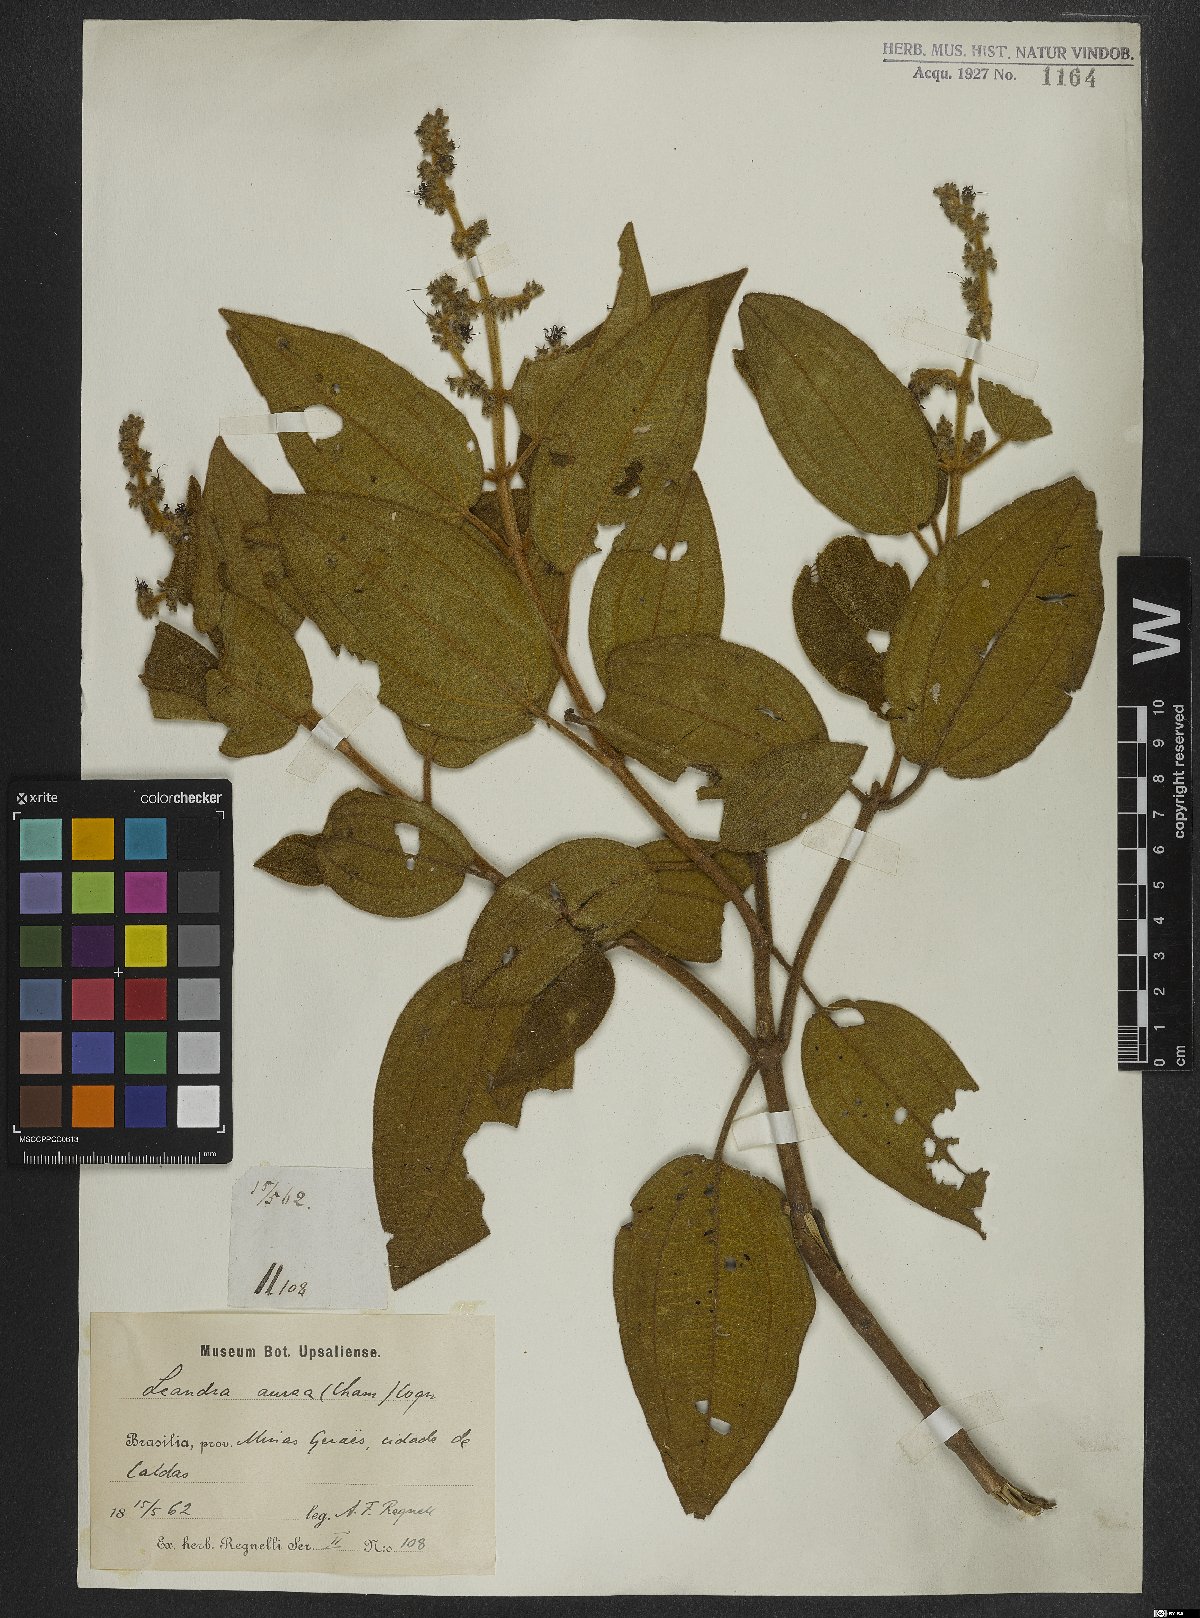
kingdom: Plantae
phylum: Tracheophyta
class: Magnoliopsida
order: Myrtales
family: Melastomataceae
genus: Miconia
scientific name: Miconia auricoma
